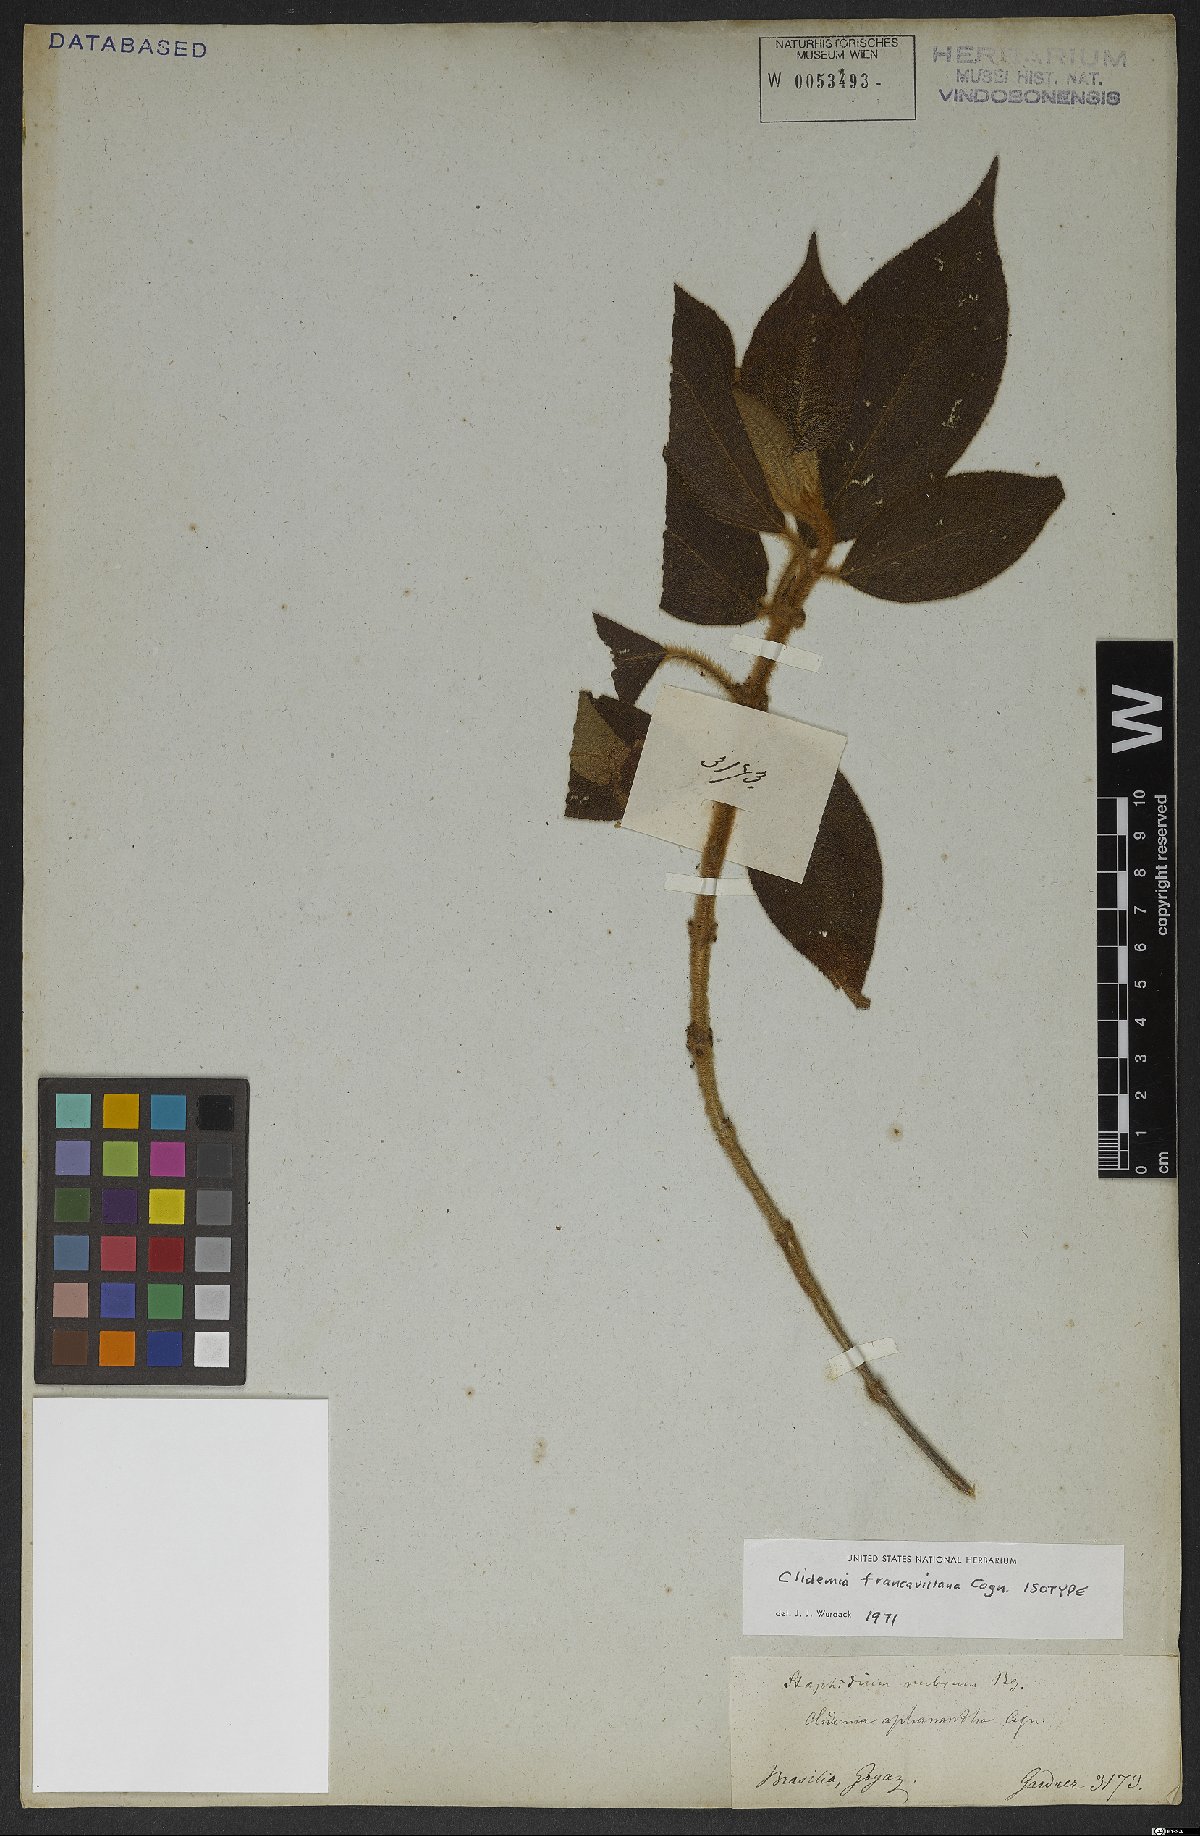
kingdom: Plantae
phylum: Tracheophyta
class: Magnoliopsida
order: Myrtales
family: Melastomataceae
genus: Miconia
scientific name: Miconia pseudodebilis
